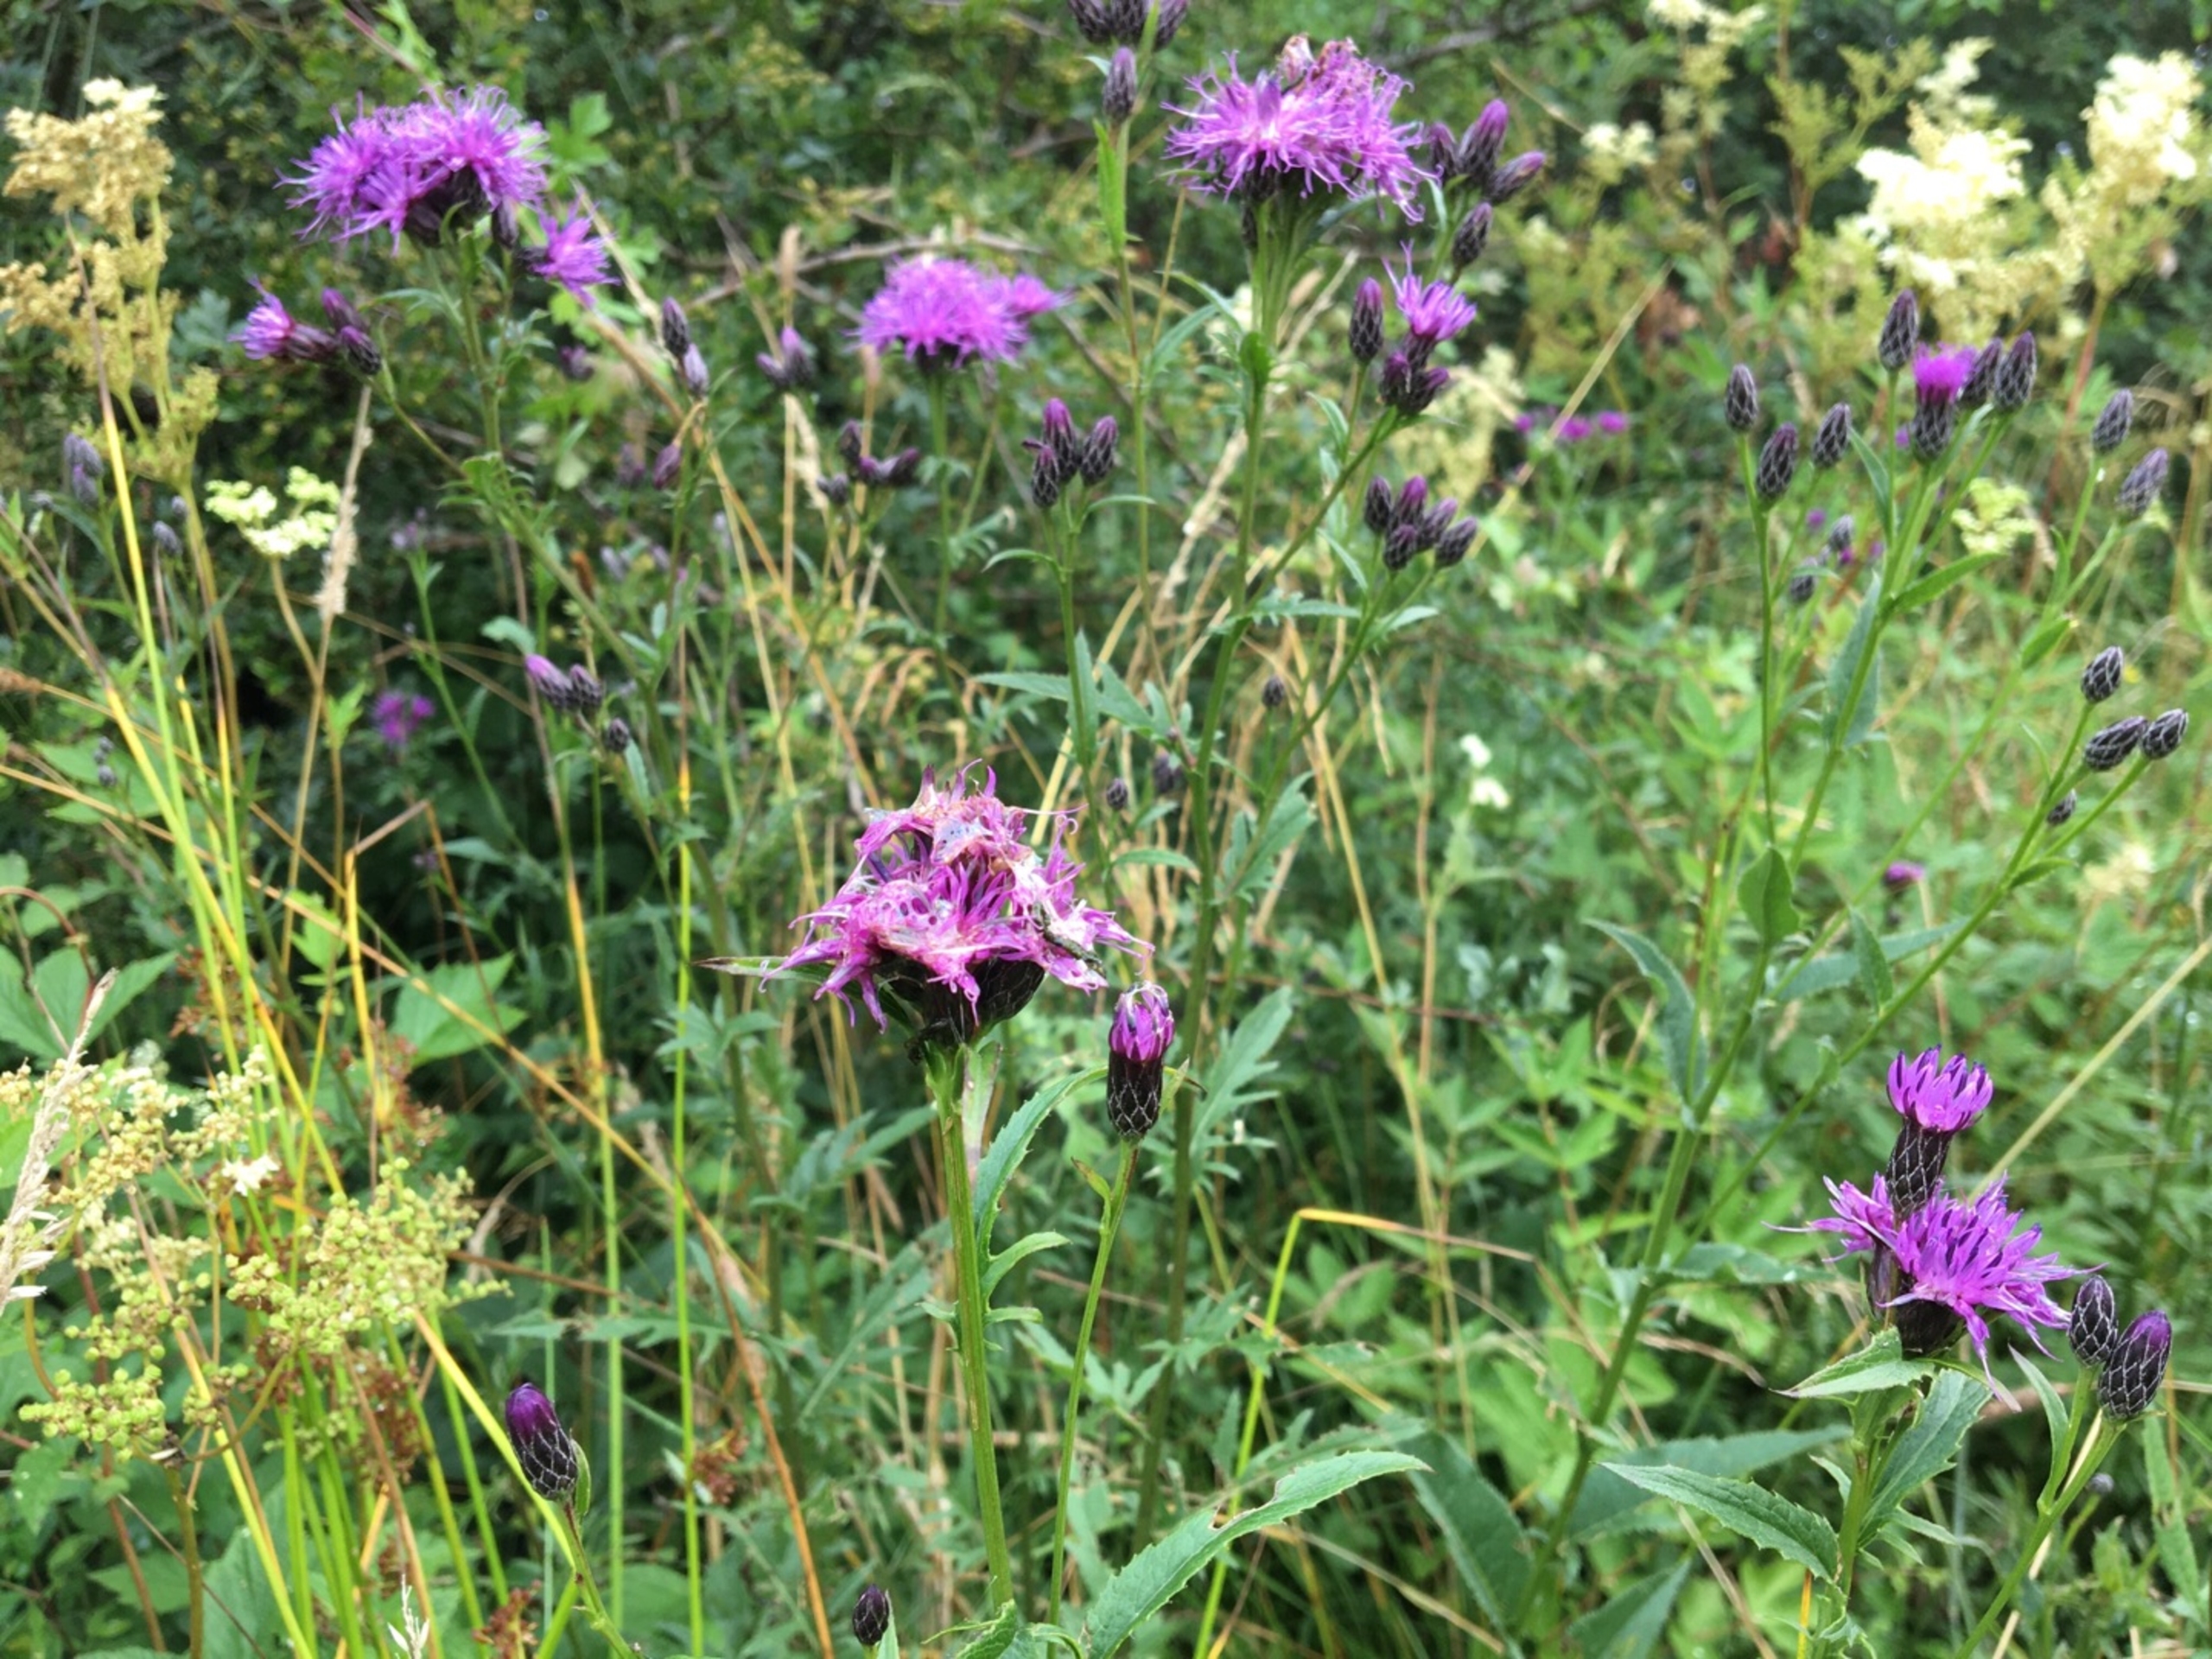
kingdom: Plantae
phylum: Tracheophyta
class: Magnoliopsida
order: Asterales
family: Asteraceae
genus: Serratula
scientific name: Serratula tinctoria
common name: Eng-skær
